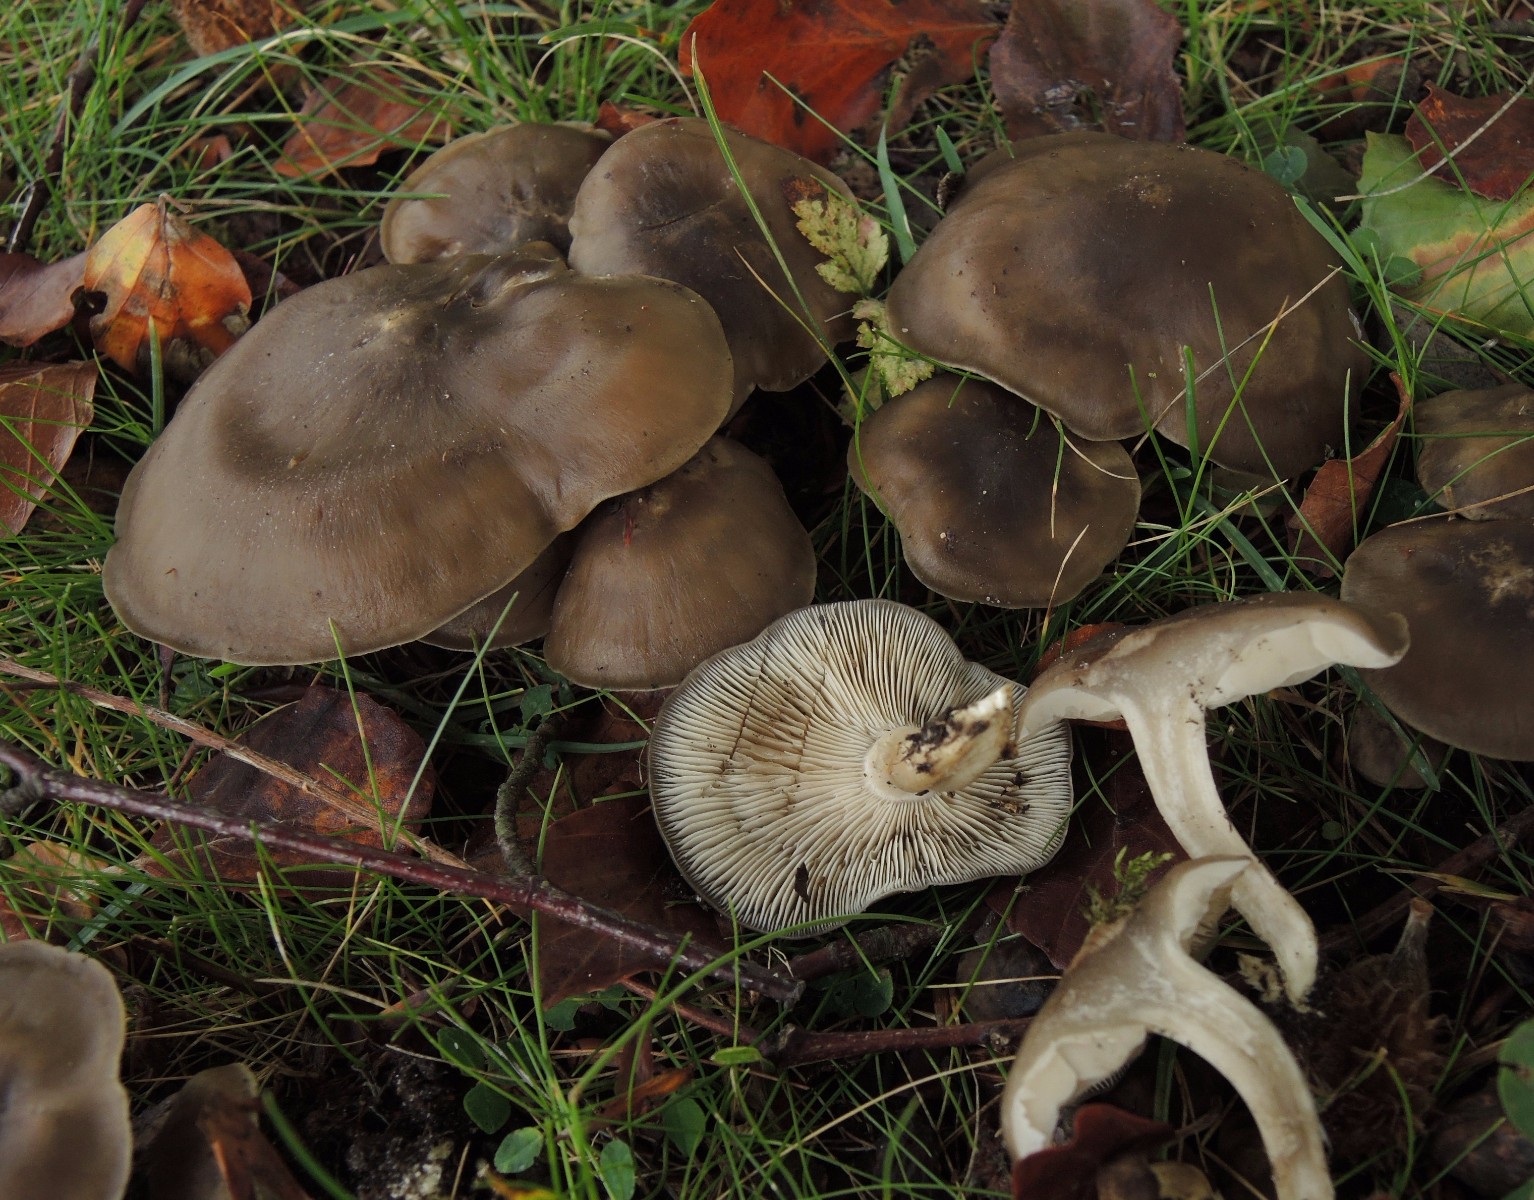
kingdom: Fungi
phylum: Basidiomycota
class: Agaricomycetes
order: Agaricales
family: Lyophyllaceae
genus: Lyophyllum
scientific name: Lyophyllum decastes
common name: Clustered domecap
